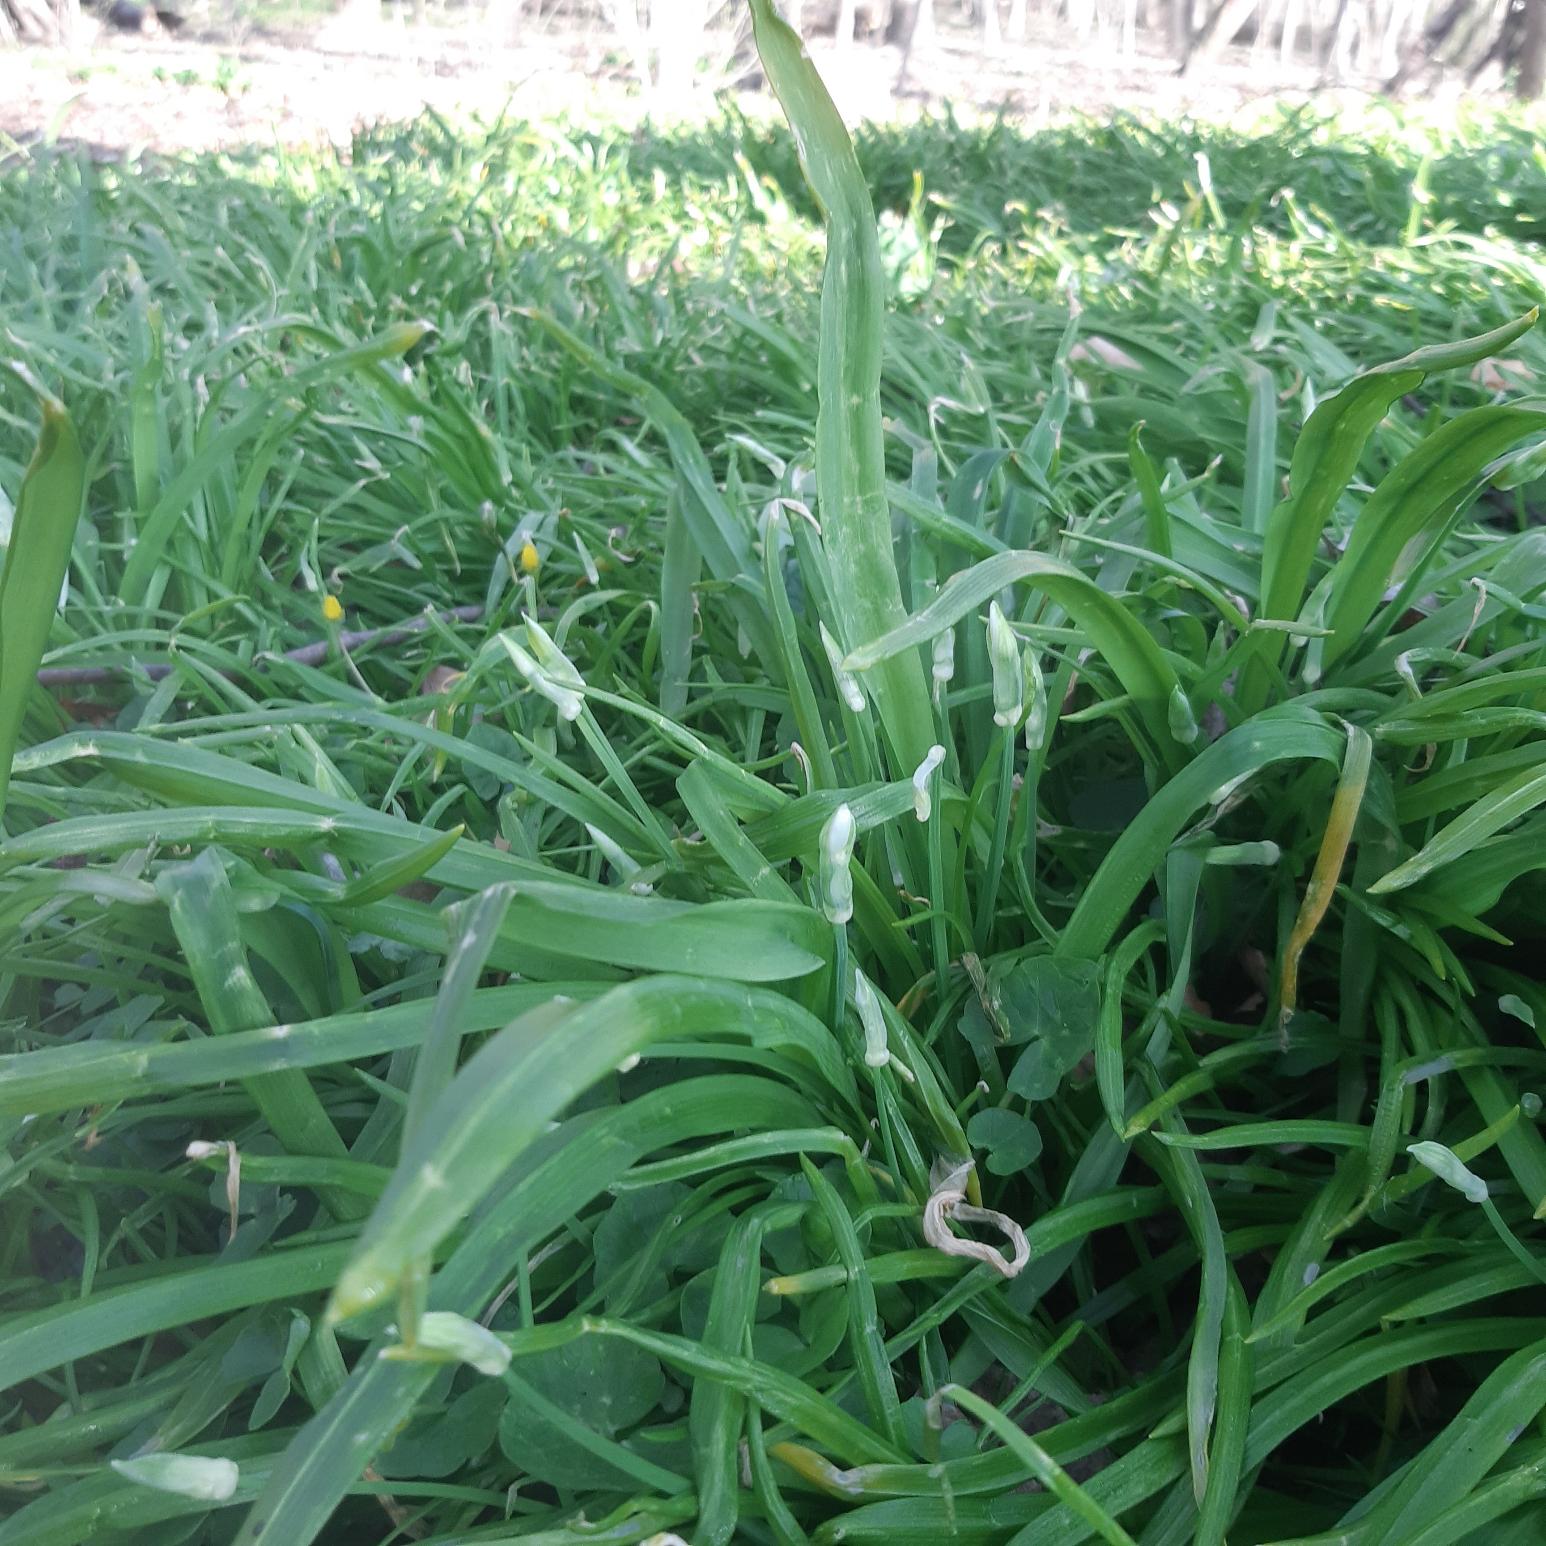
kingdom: Plantae
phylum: Tracheophyta
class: Liliopsida
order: Asparagales
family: Amaryllidaceae
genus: Allium
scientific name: Allium paradoxum
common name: Spøjs løg
